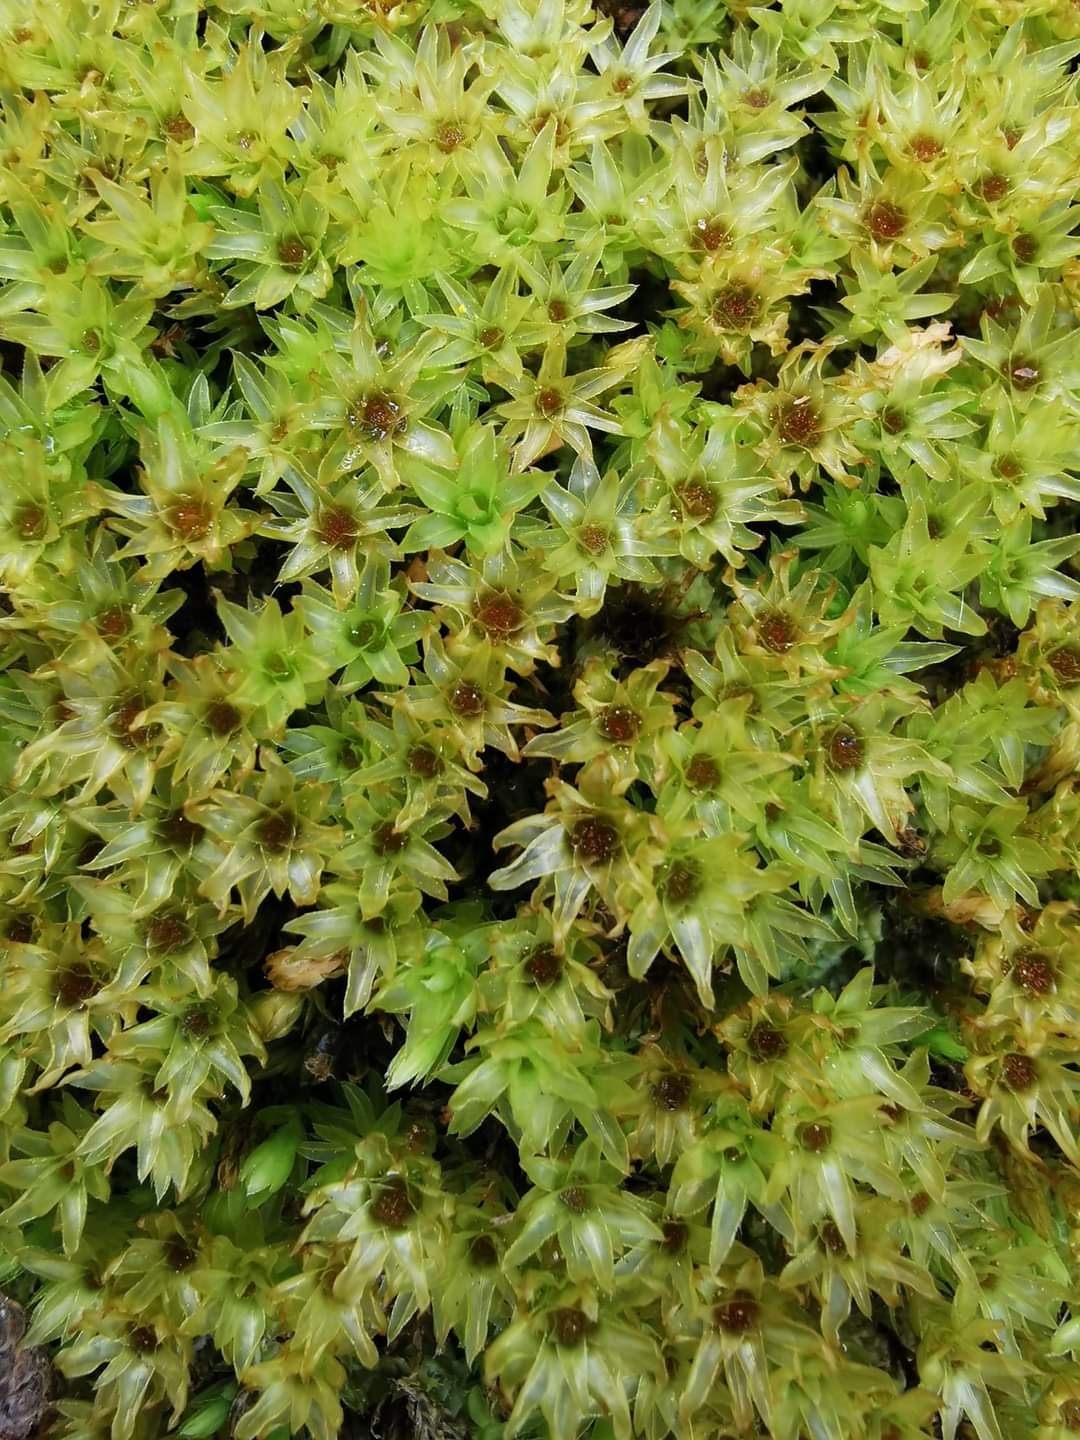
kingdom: Plantae
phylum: Bryophyta
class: Bryopsida
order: Bryales
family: Mniaceae
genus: Mnium
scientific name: Mnium hornum
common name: Brunfiltet stjernemos
